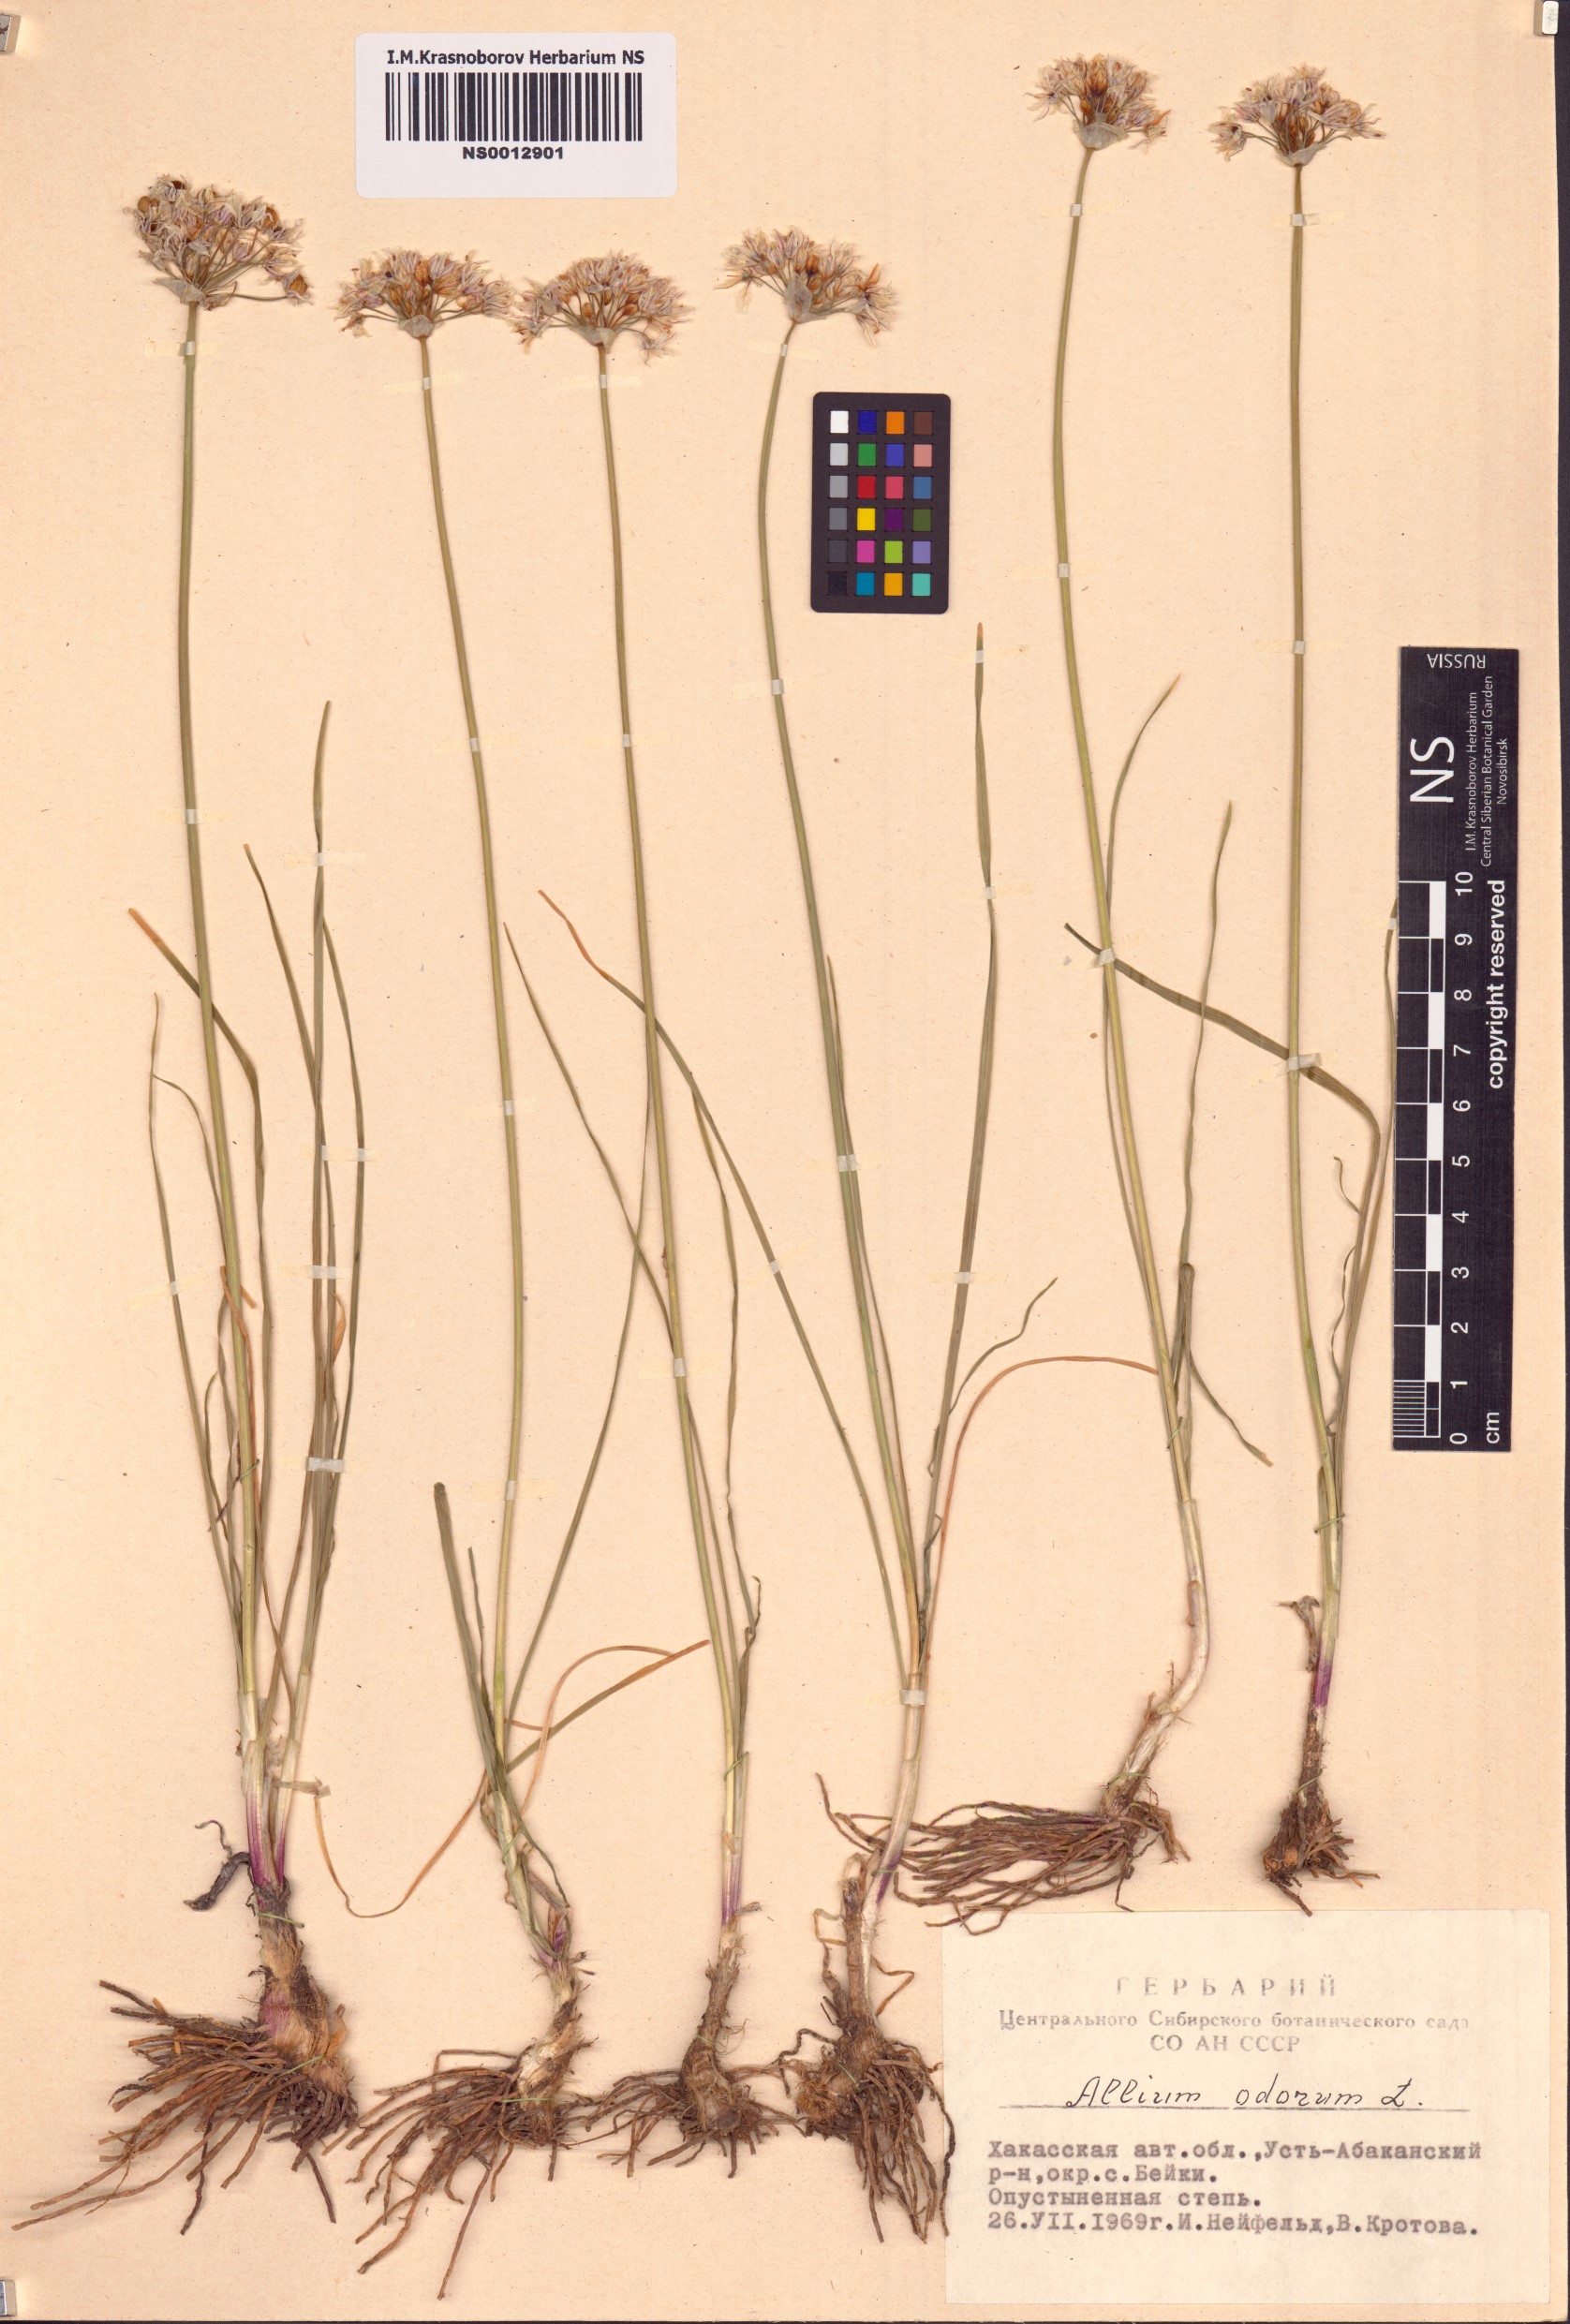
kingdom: Plantae
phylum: Tracheophyta
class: Liliopsida
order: Asparagales
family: Amaryllidaceae
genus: Allium
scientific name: Allium ramosum
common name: Fragrant garlic
